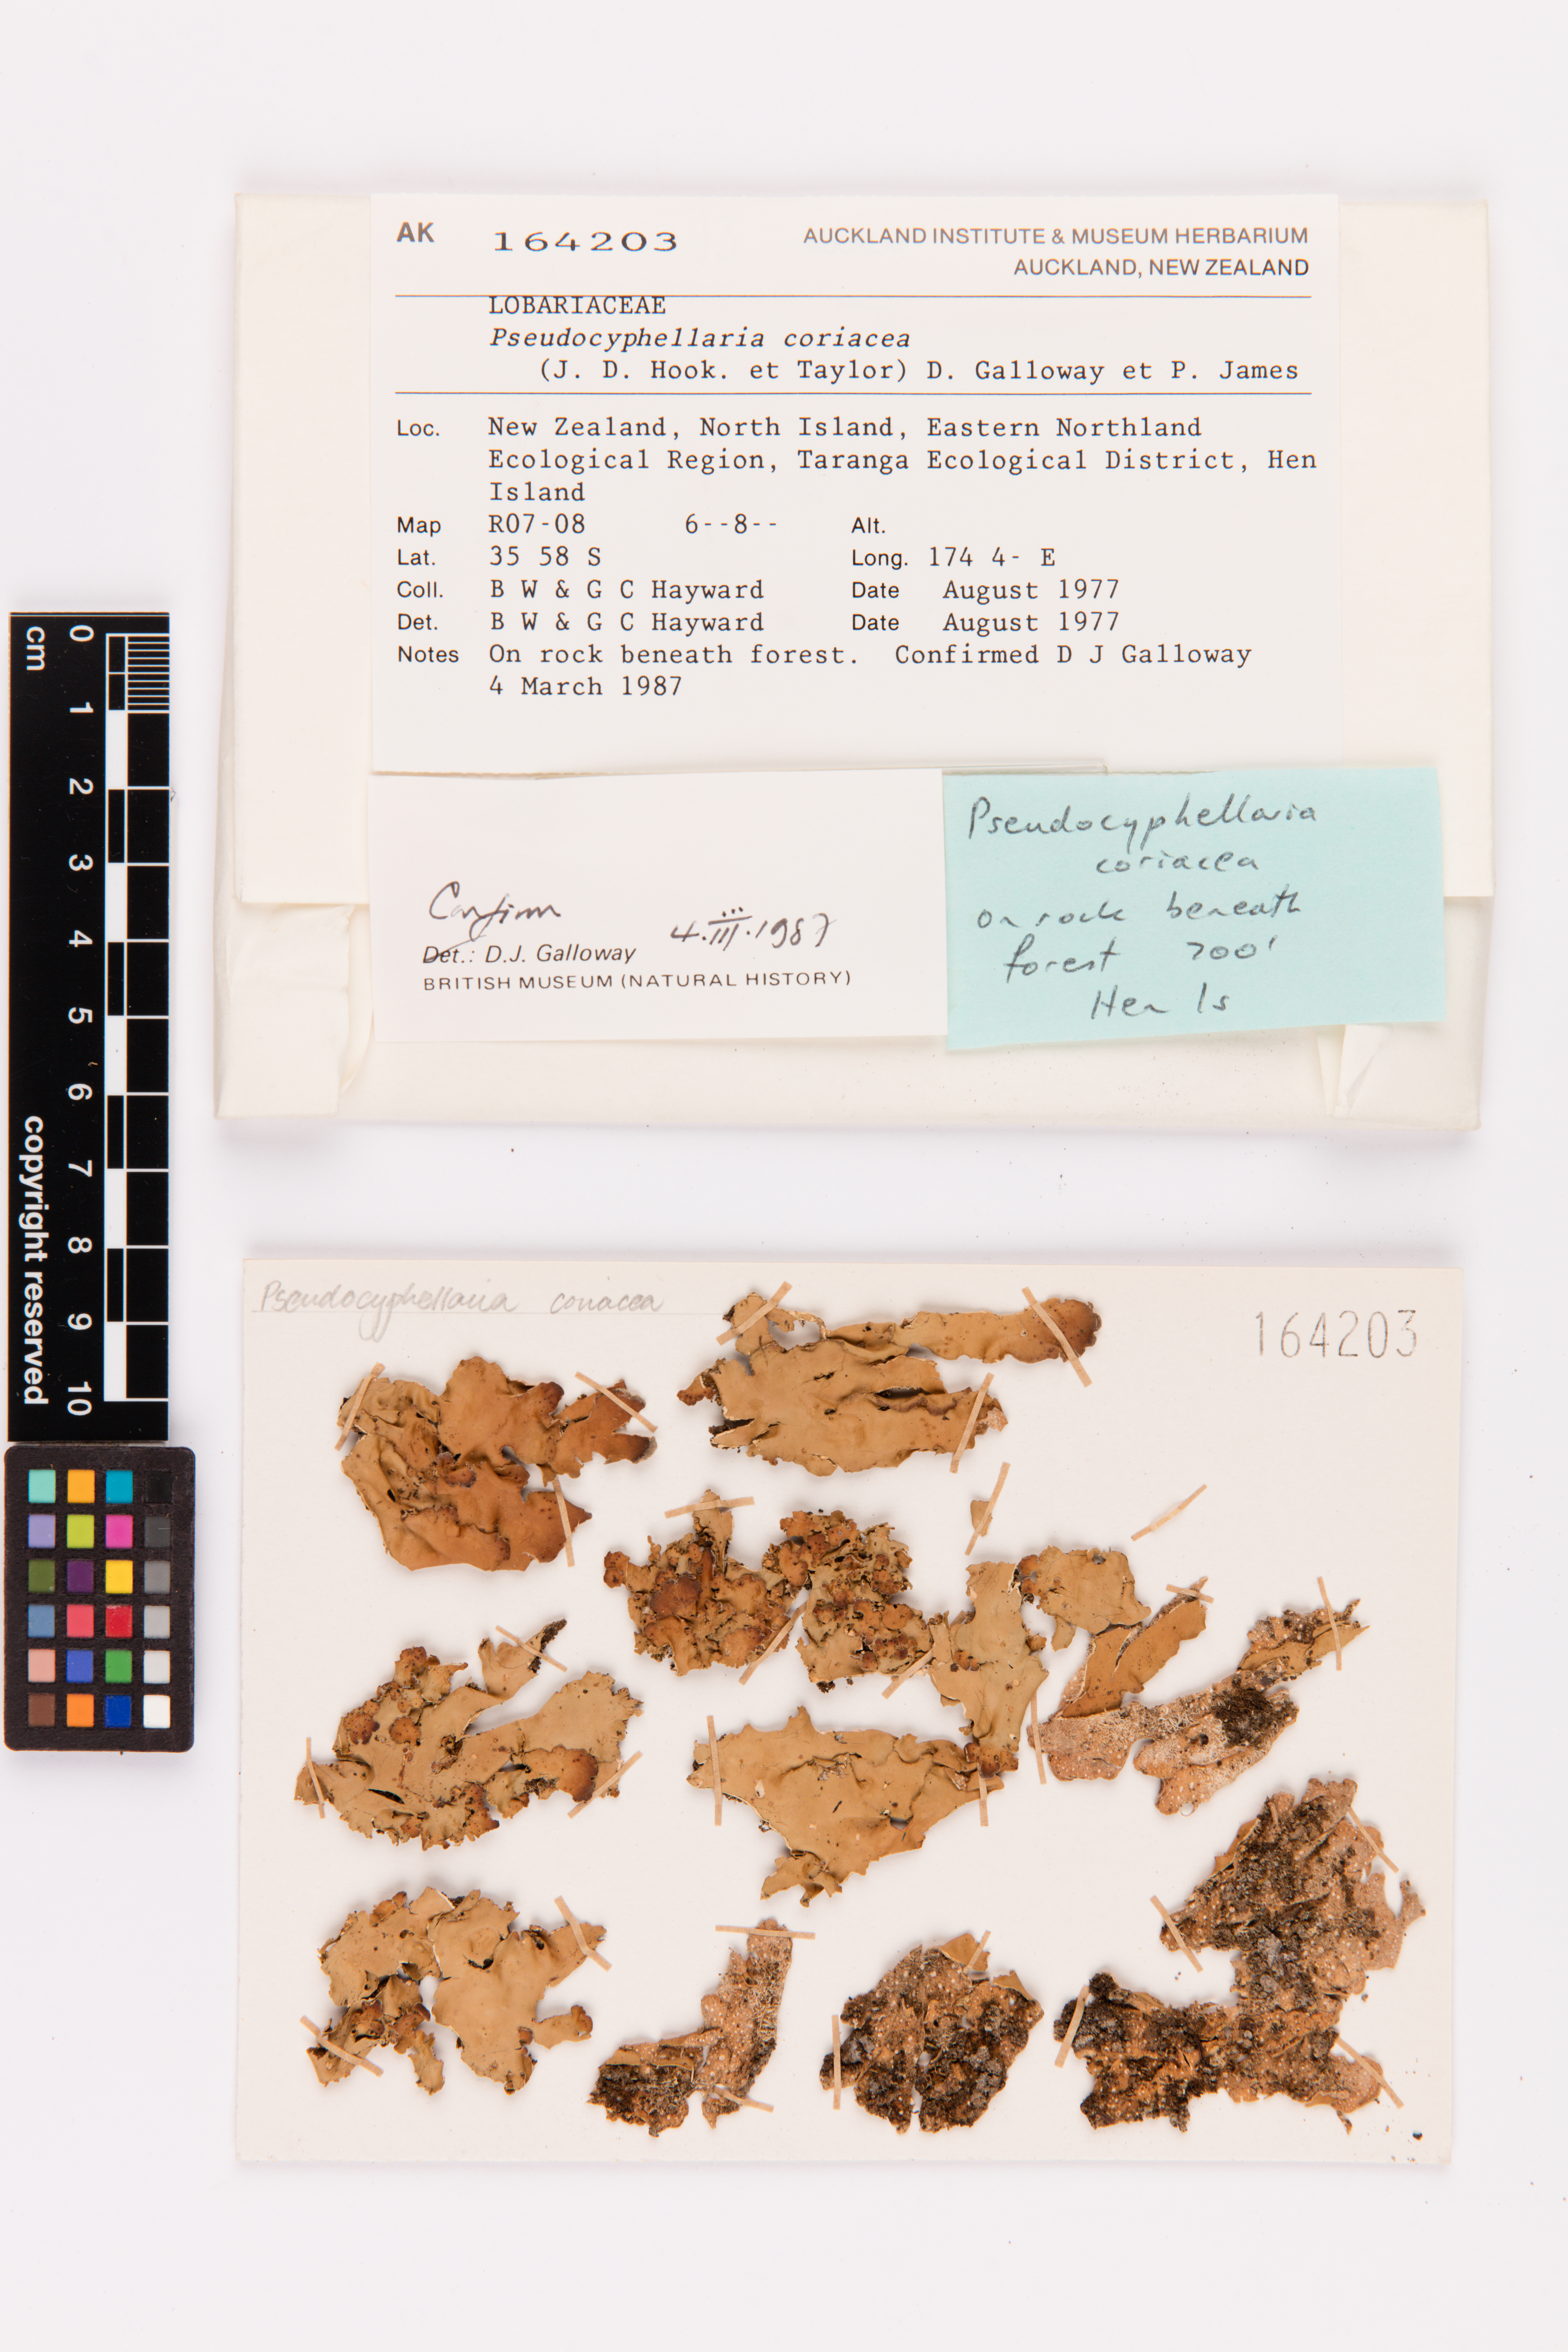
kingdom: Fungi
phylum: Ascomycota
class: Lecanoromycetes
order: Peltigerales
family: Lobariaceae
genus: Pseudocyphellaria
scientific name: Pseudocyphellaria coriacea
